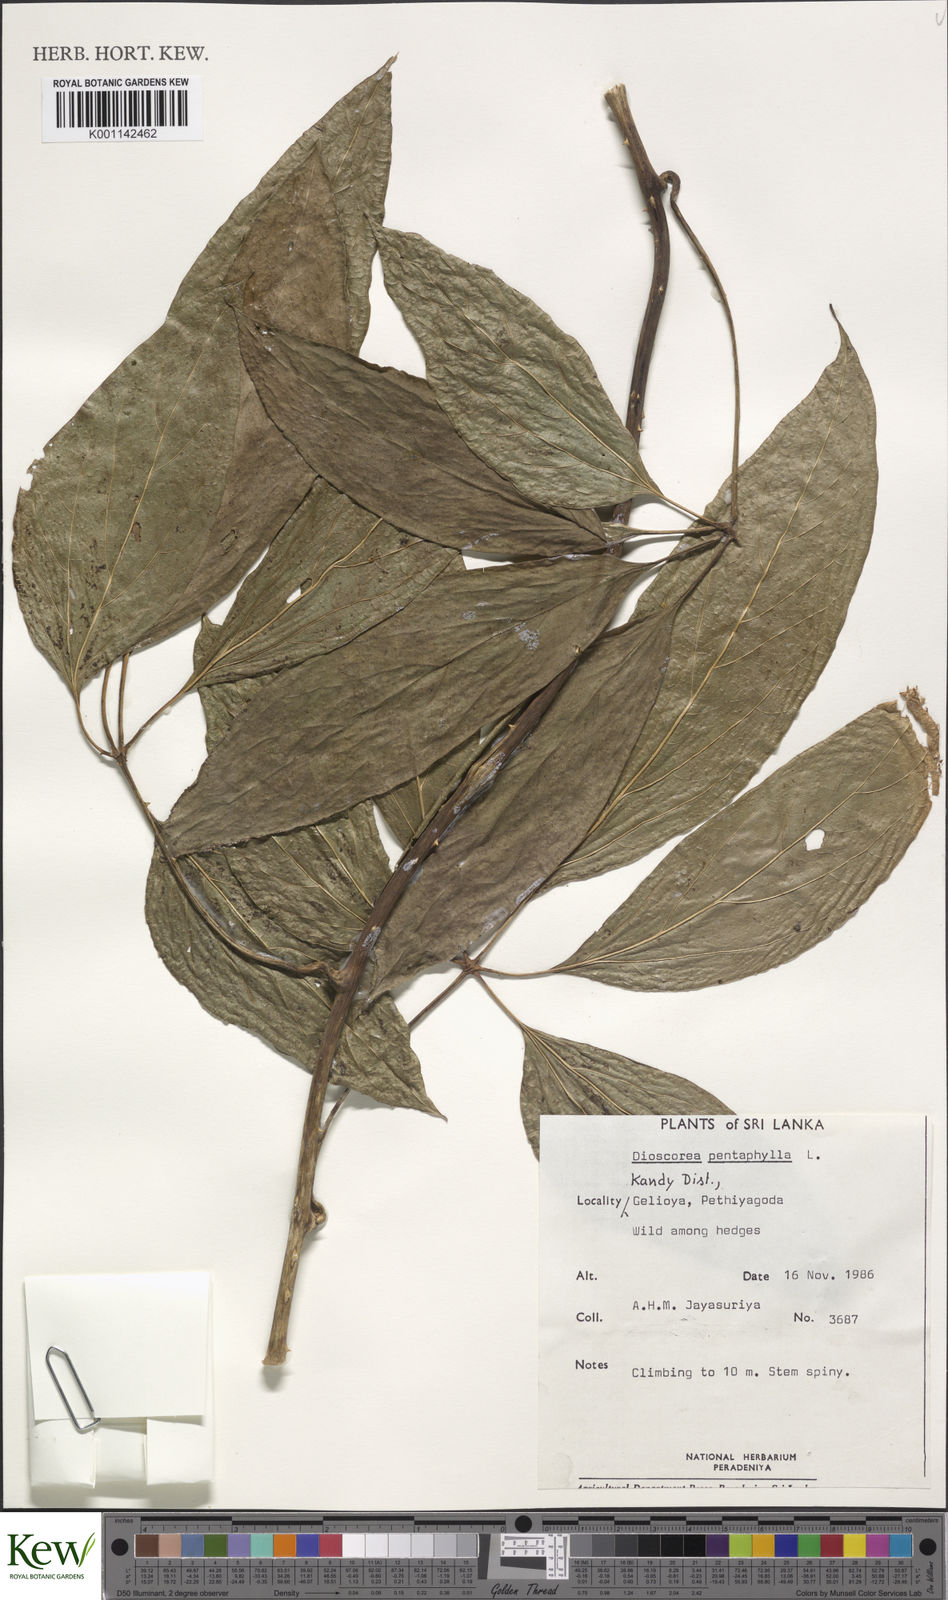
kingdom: Plantae
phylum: Tracheophyta
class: Liliopsida
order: Dioscoreales
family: Dioscoreaceae
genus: Dioscorea
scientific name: Dioscorea pentaphylla
